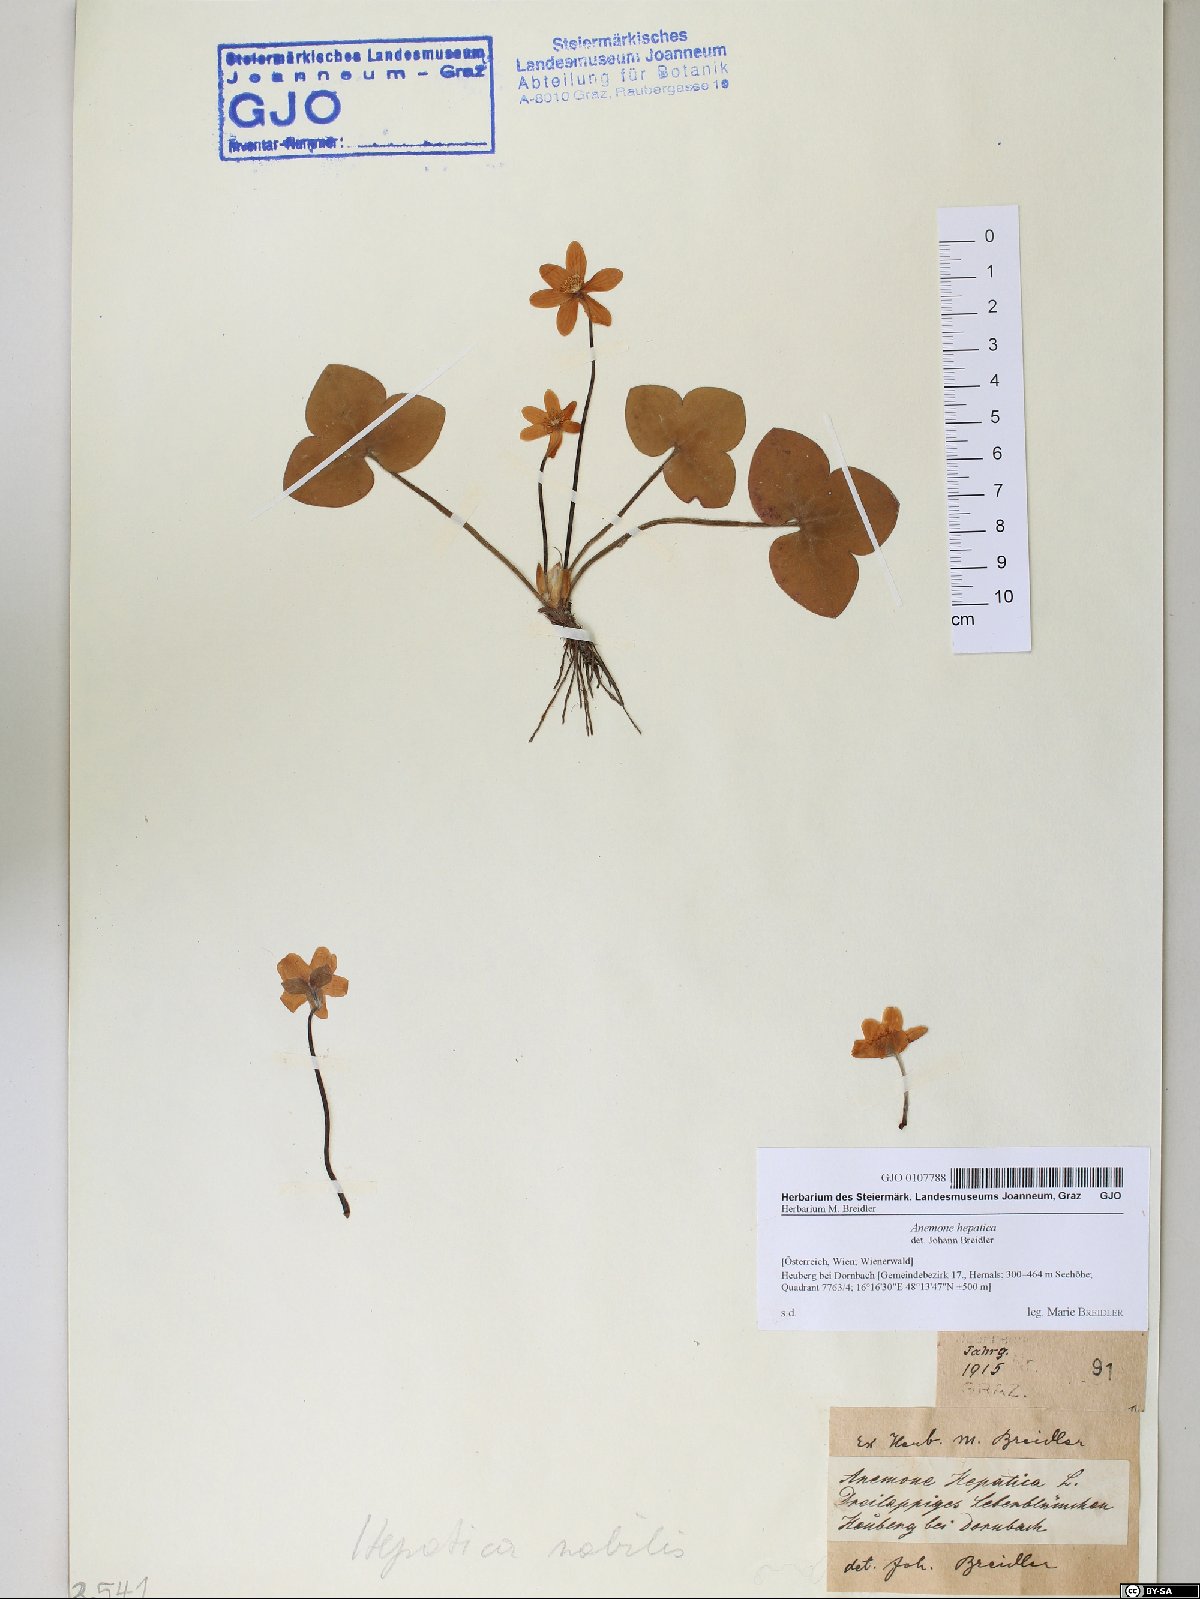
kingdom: Plantae
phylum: Tracheophyta
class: Magnoliopsida
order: Ranunculales
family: Ranunculaceae
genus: Hepatica
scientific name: Hepatica nobilis
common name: Liverleaf
